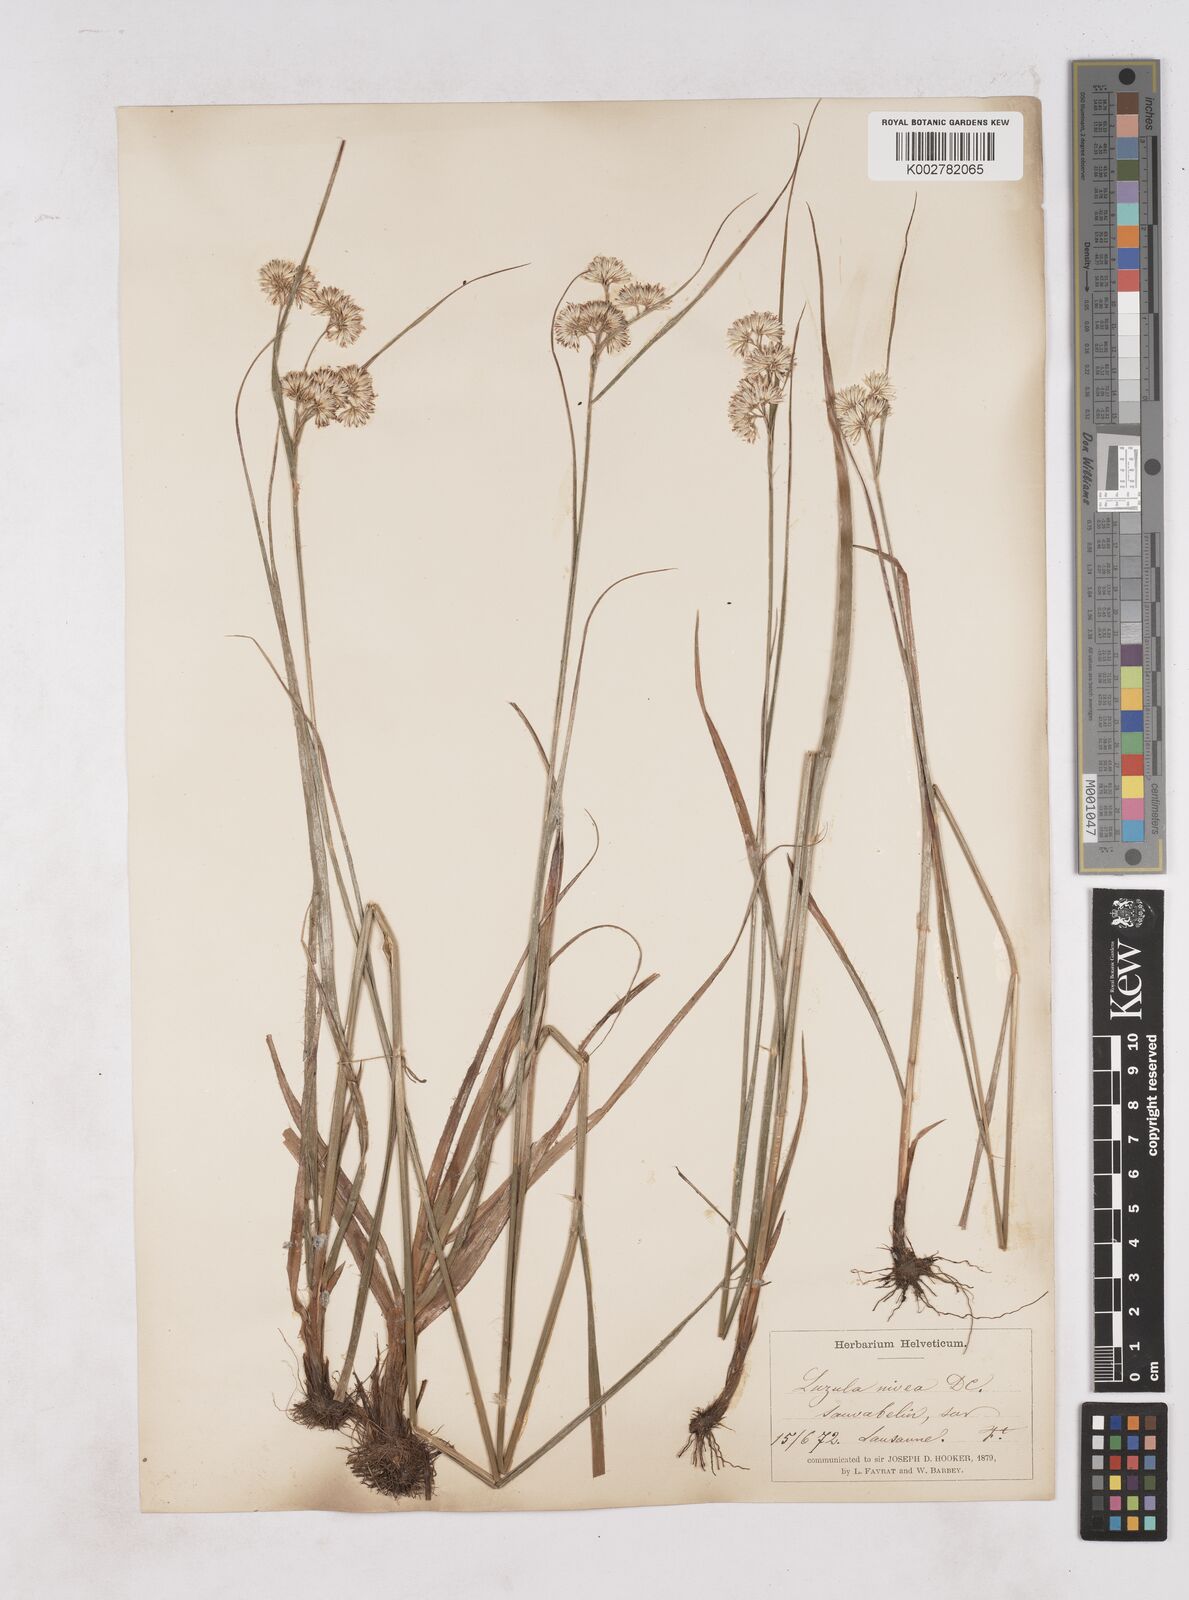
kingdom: Plantae
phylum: Tracheophyta
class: Liliopsida
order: Poales
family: Juncaceae
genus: Luzula
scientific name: Luzula nivea
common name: Snow-white wood-rush
